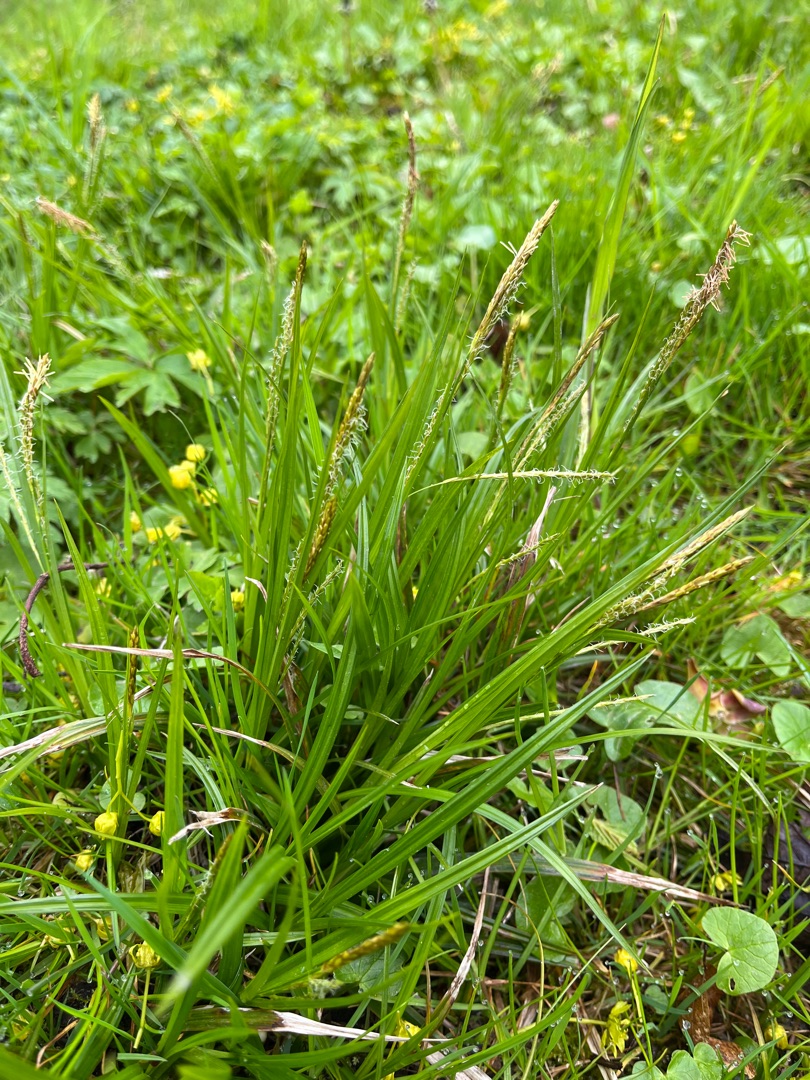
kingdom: Plantae
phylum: Tracheophyta
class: Liliopsida
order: Poales
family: Cyperaceae
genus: Carex
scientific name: Carex sylvatica
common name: Skov-star
